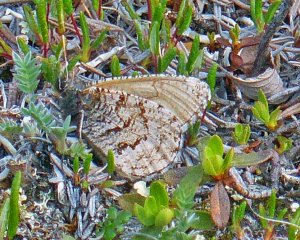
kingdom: Animalia
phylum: Arthropoda
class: Insecta
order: Lepidoptera
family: Nymphalidae
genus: Oeneis
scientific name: Oeneis bore
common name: Polixenes Arctic
